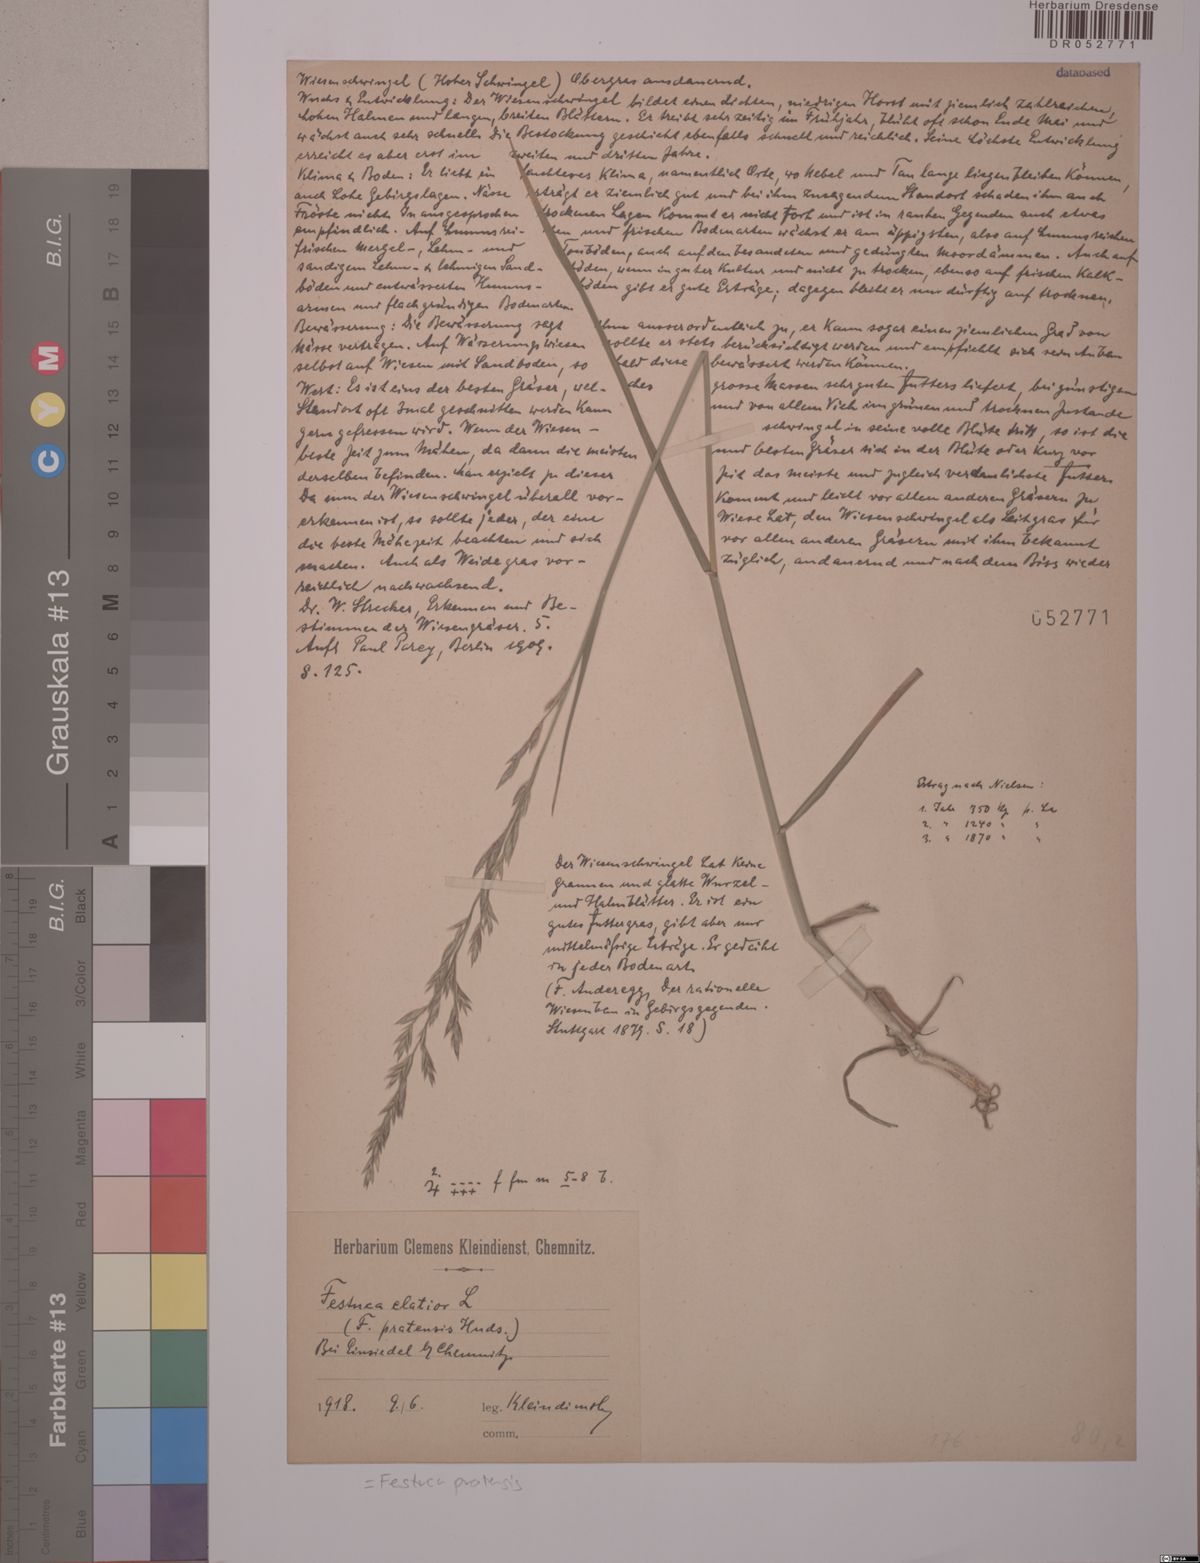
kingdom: Plantae
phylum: Tracheophyta
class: Liliopsida
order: Poales
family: Poaceae
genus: Lolium
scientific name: Lolium pratense
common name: Dover grass
